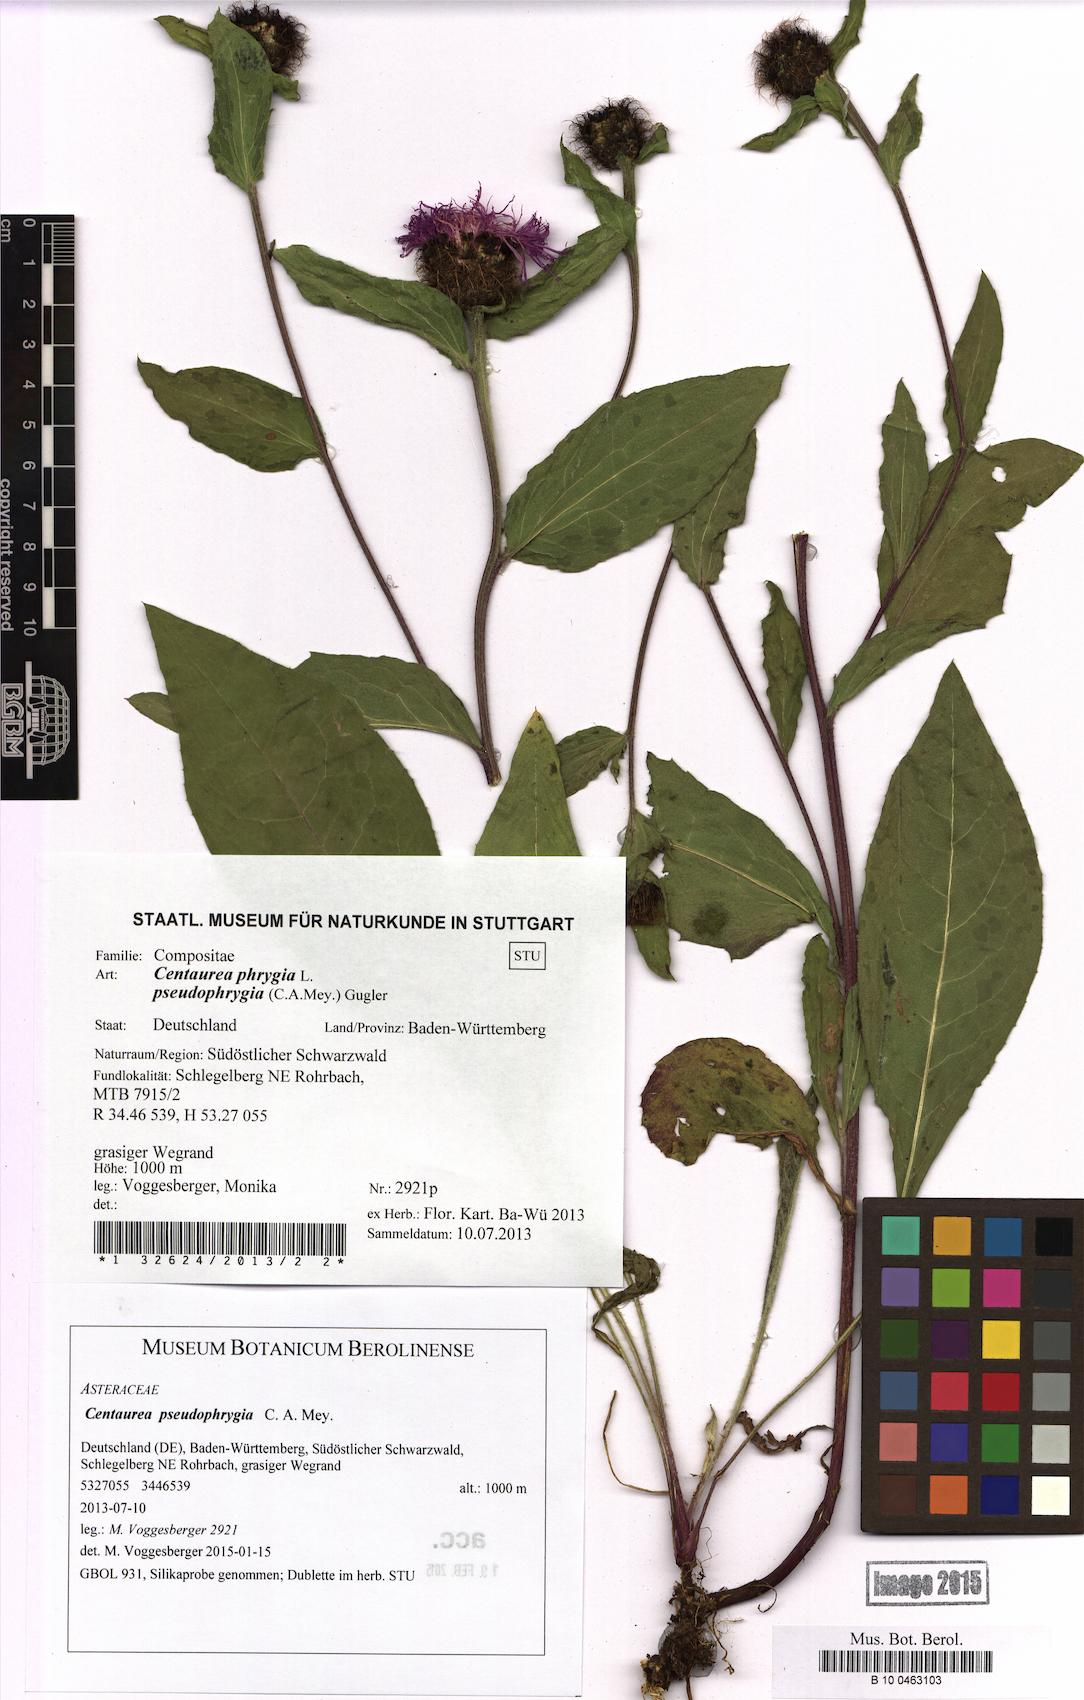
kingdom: Plantae
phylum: Tracheophyta
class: Magnoliopsida
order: Asterales
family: Asteraceae
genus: Centaurea
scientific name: Centaurea pseudophrygia
